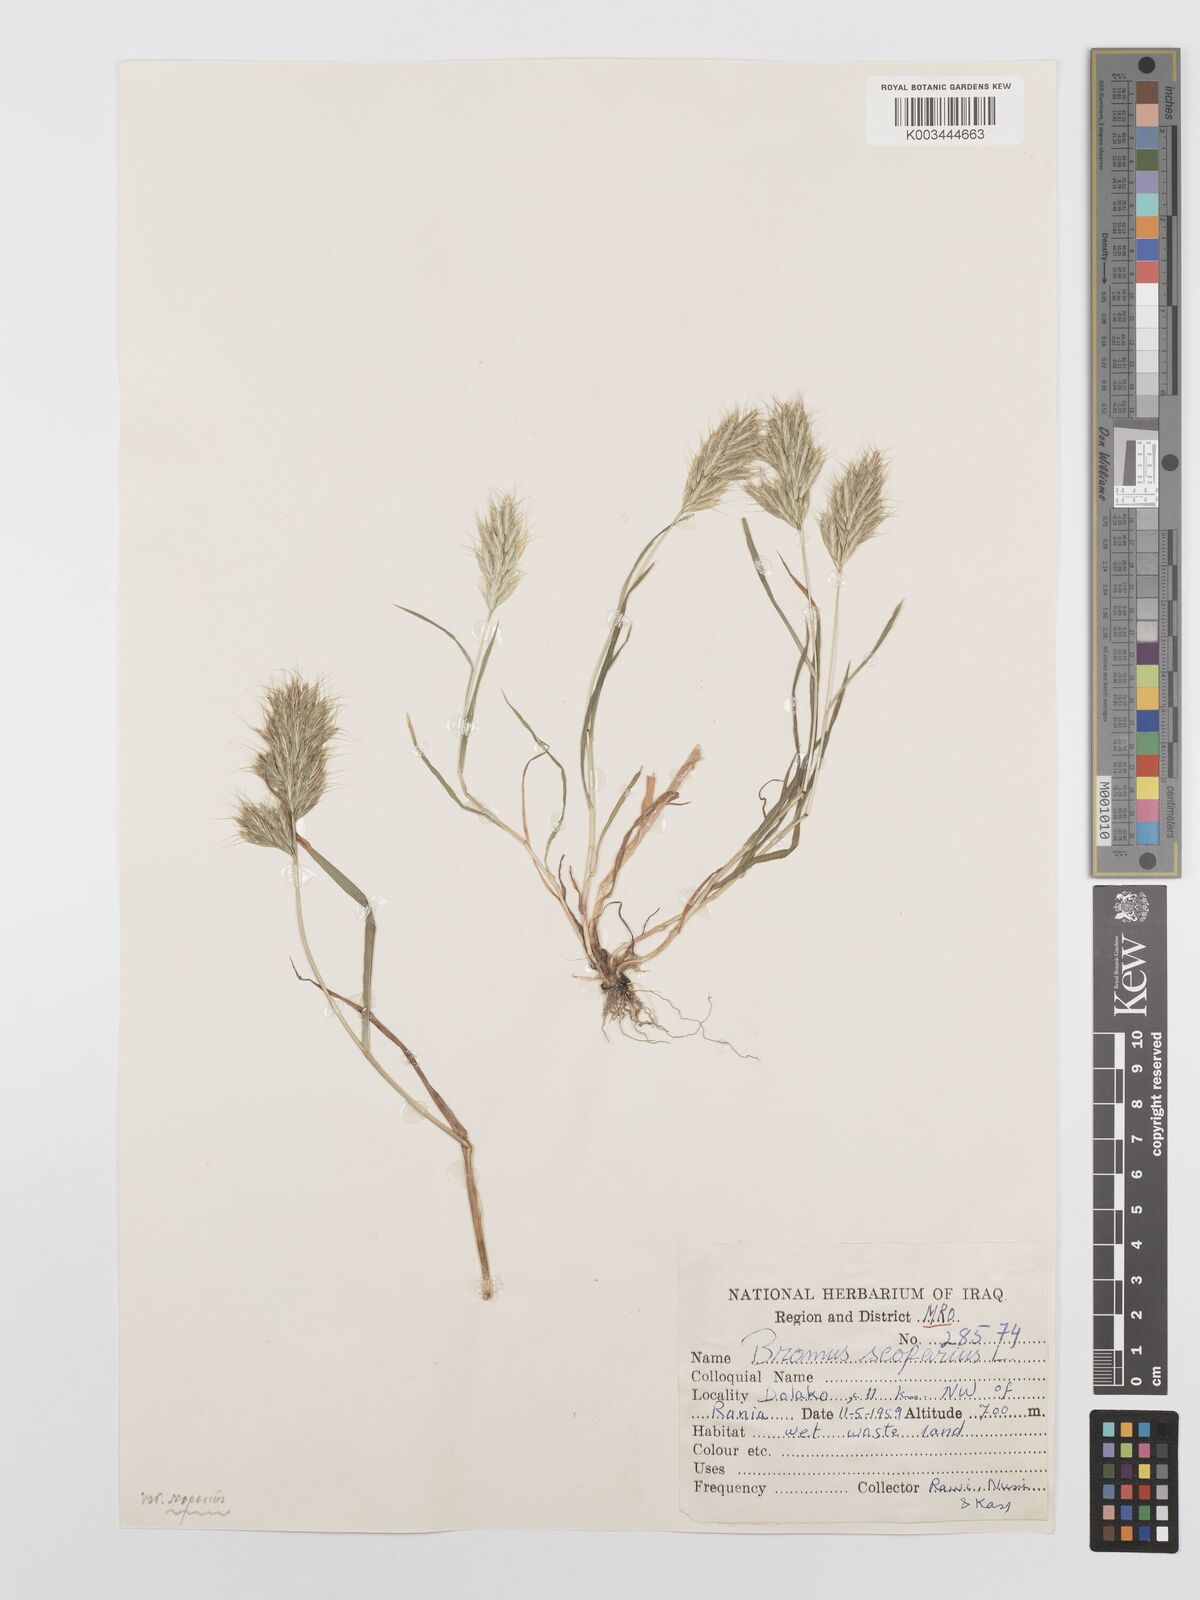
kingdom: Plantae
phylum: Tracheophyta
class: Liliopsida
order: Poales
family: Poaceae
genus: Bromus
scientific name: Bromus scoparius
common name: Broom brome
